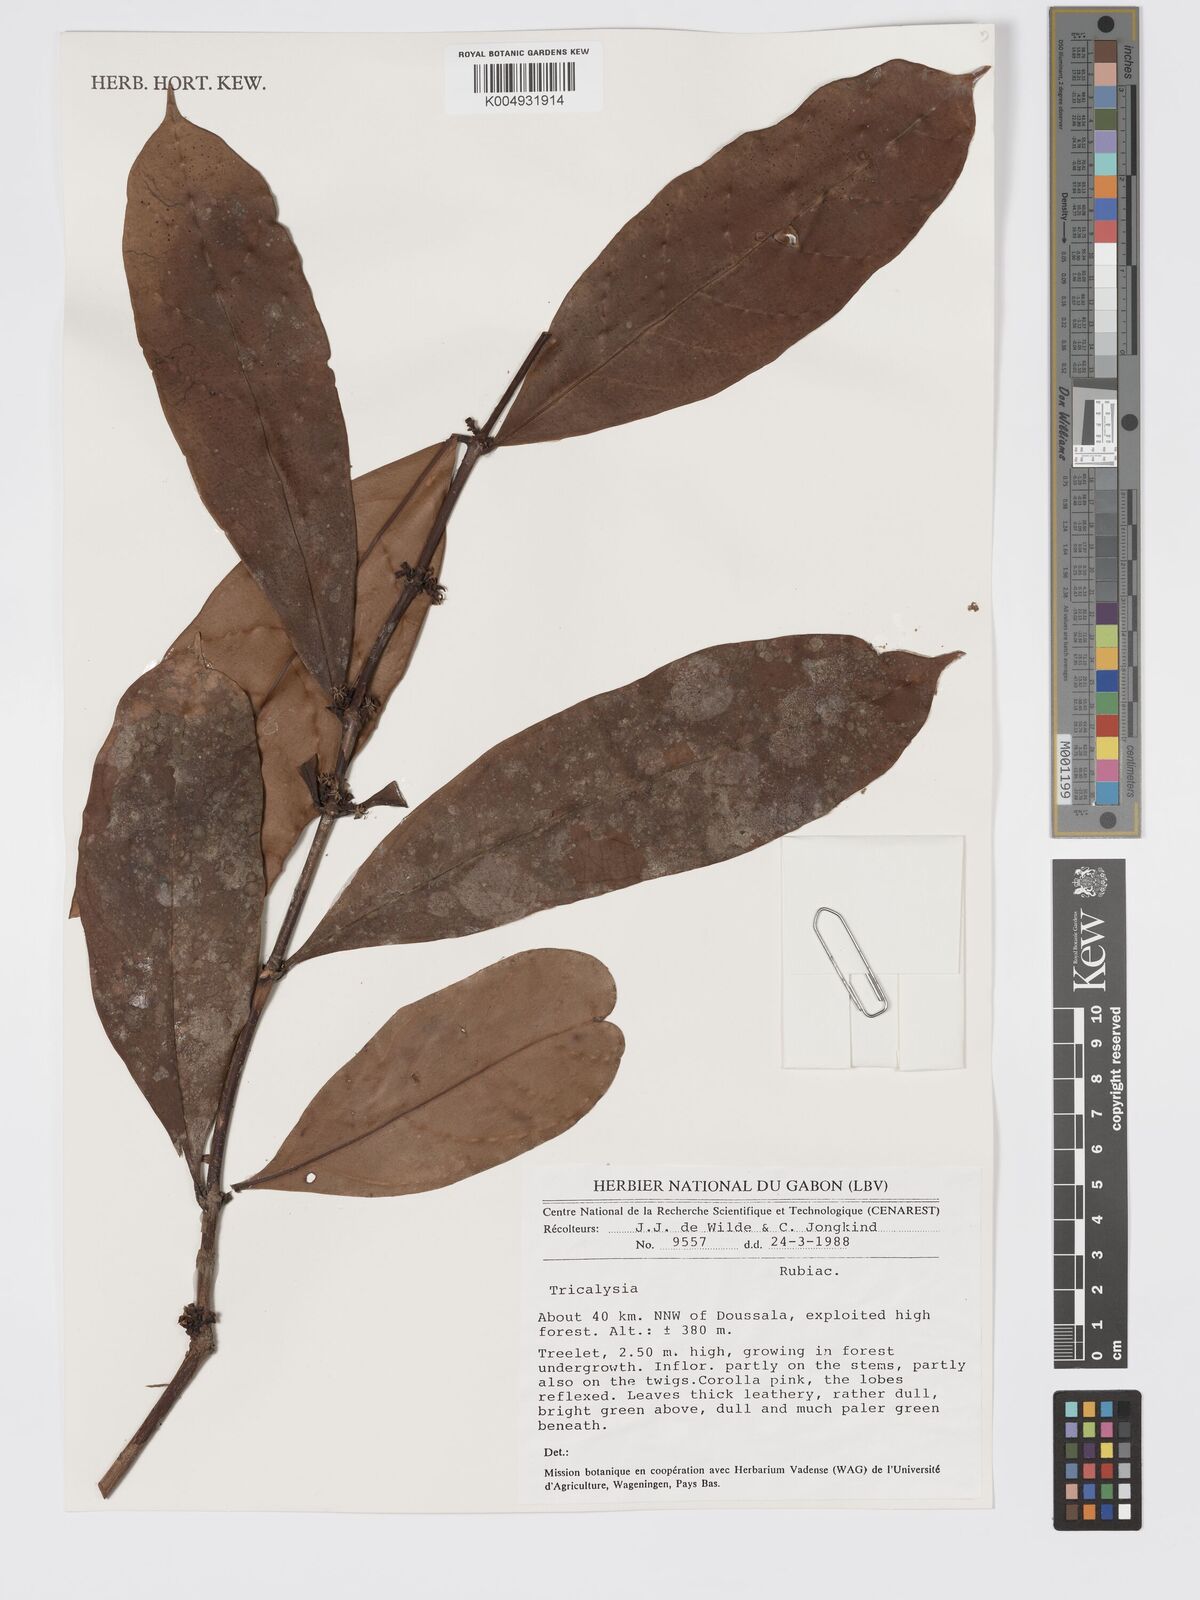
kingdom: Plantae
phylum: Tracheophyta
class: Magnoliopsida
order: Gentianales
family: Rubiaceae
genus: Tricalysia
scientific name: Tricalysia
